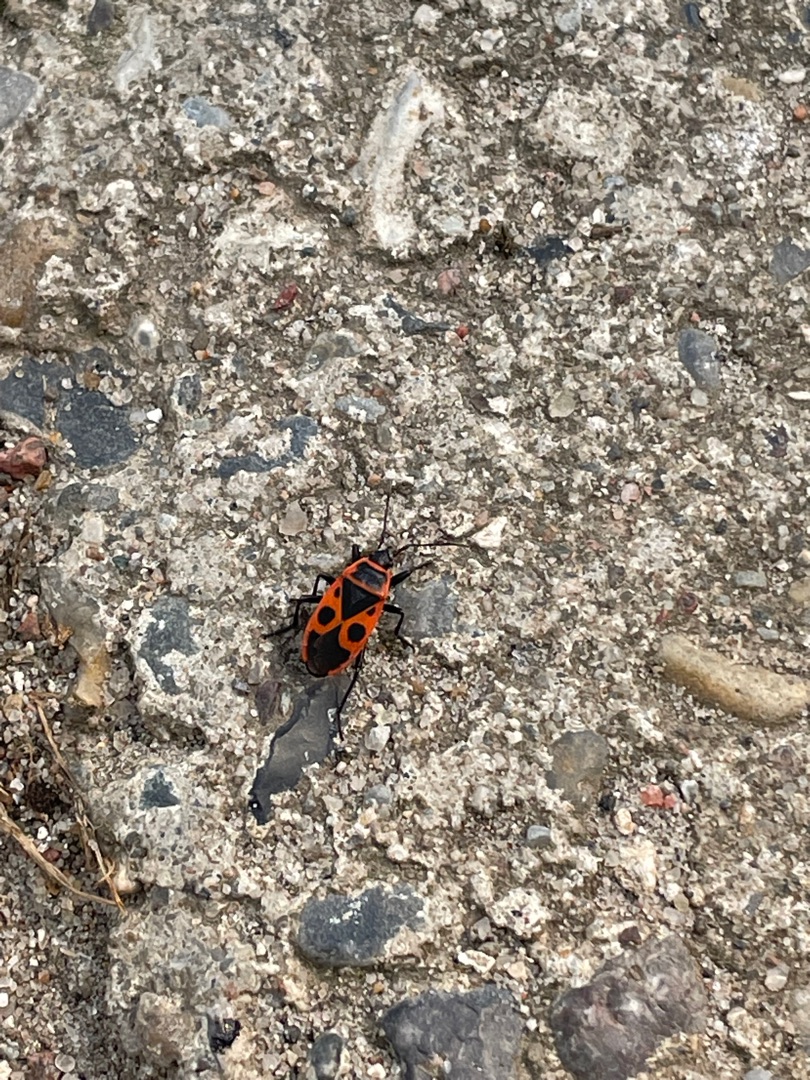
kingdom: Animalia
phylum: Arthropoda
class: Insecta
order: Hemiptera
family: Pyrrhocoridae
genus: Pyrrhocoris
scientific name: Pyrrhocoris apterus
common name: Ildtæge
